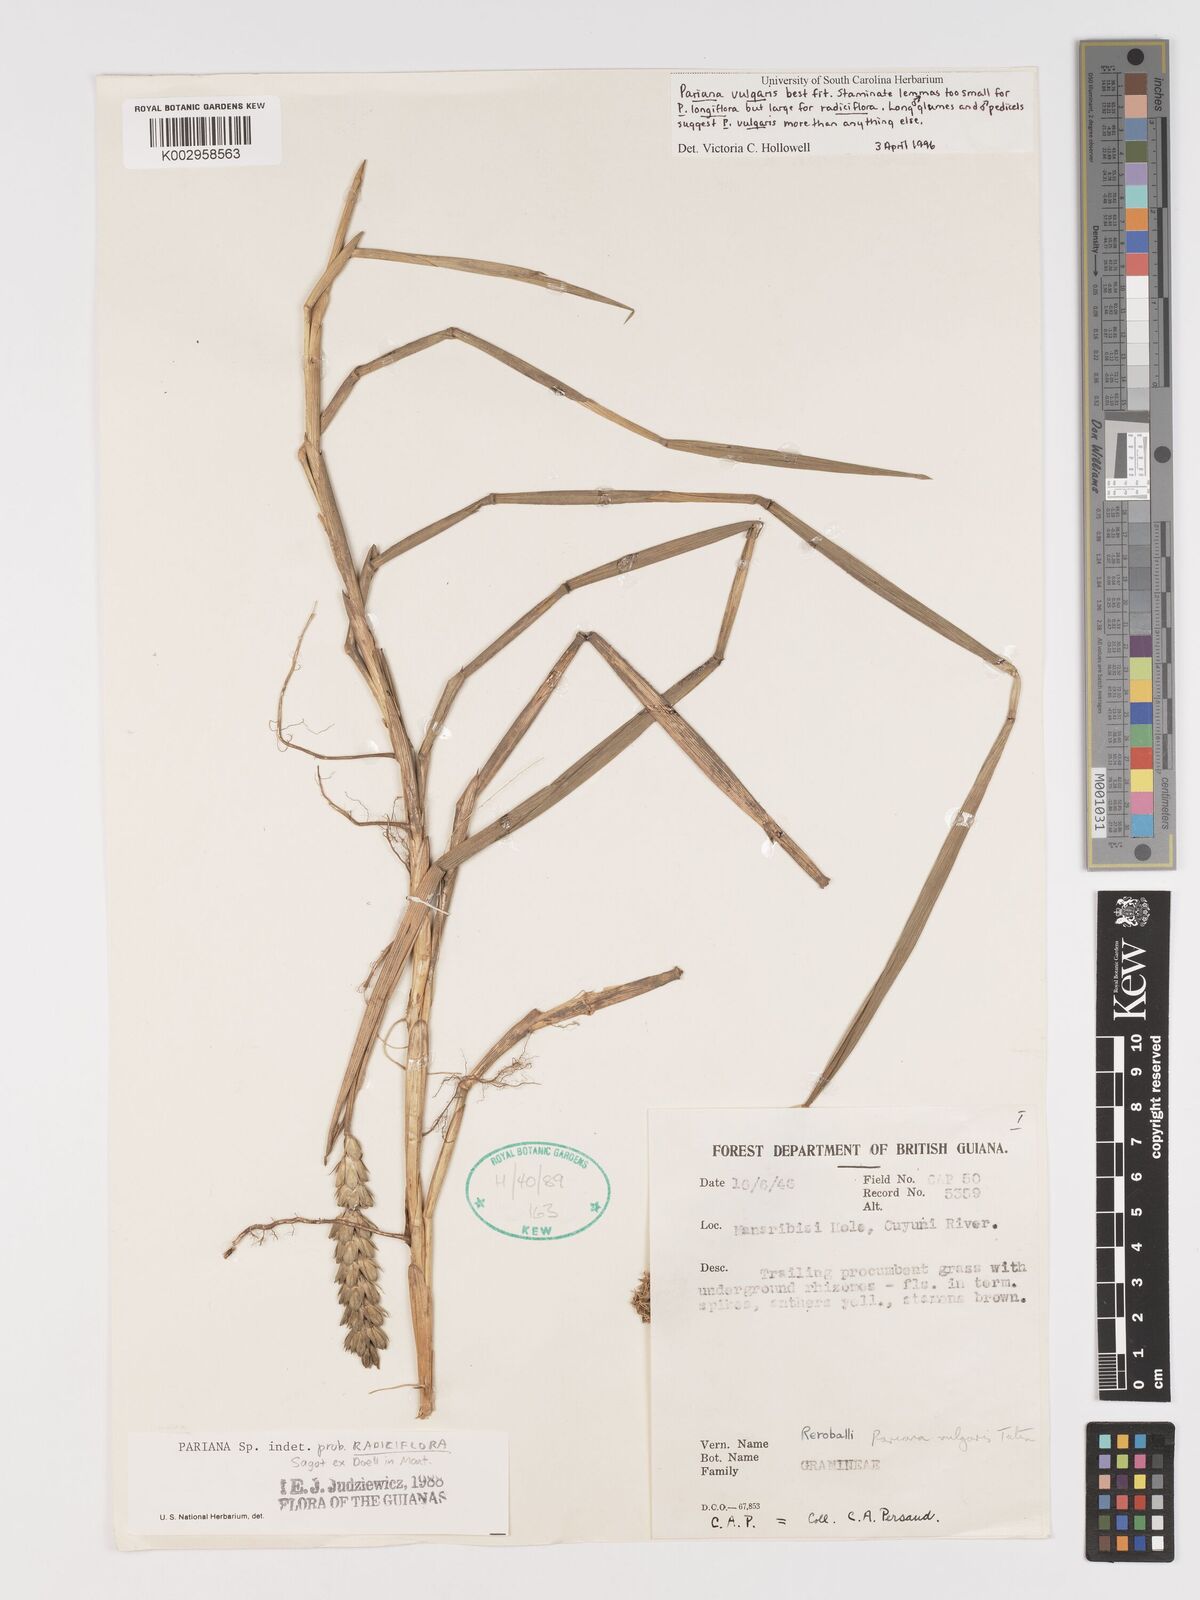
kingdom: Plantae
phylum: Tracheophyta
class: Liliopsida
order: Poales
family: Poaceae
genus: Pariana
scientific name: Pariana radiciflora
